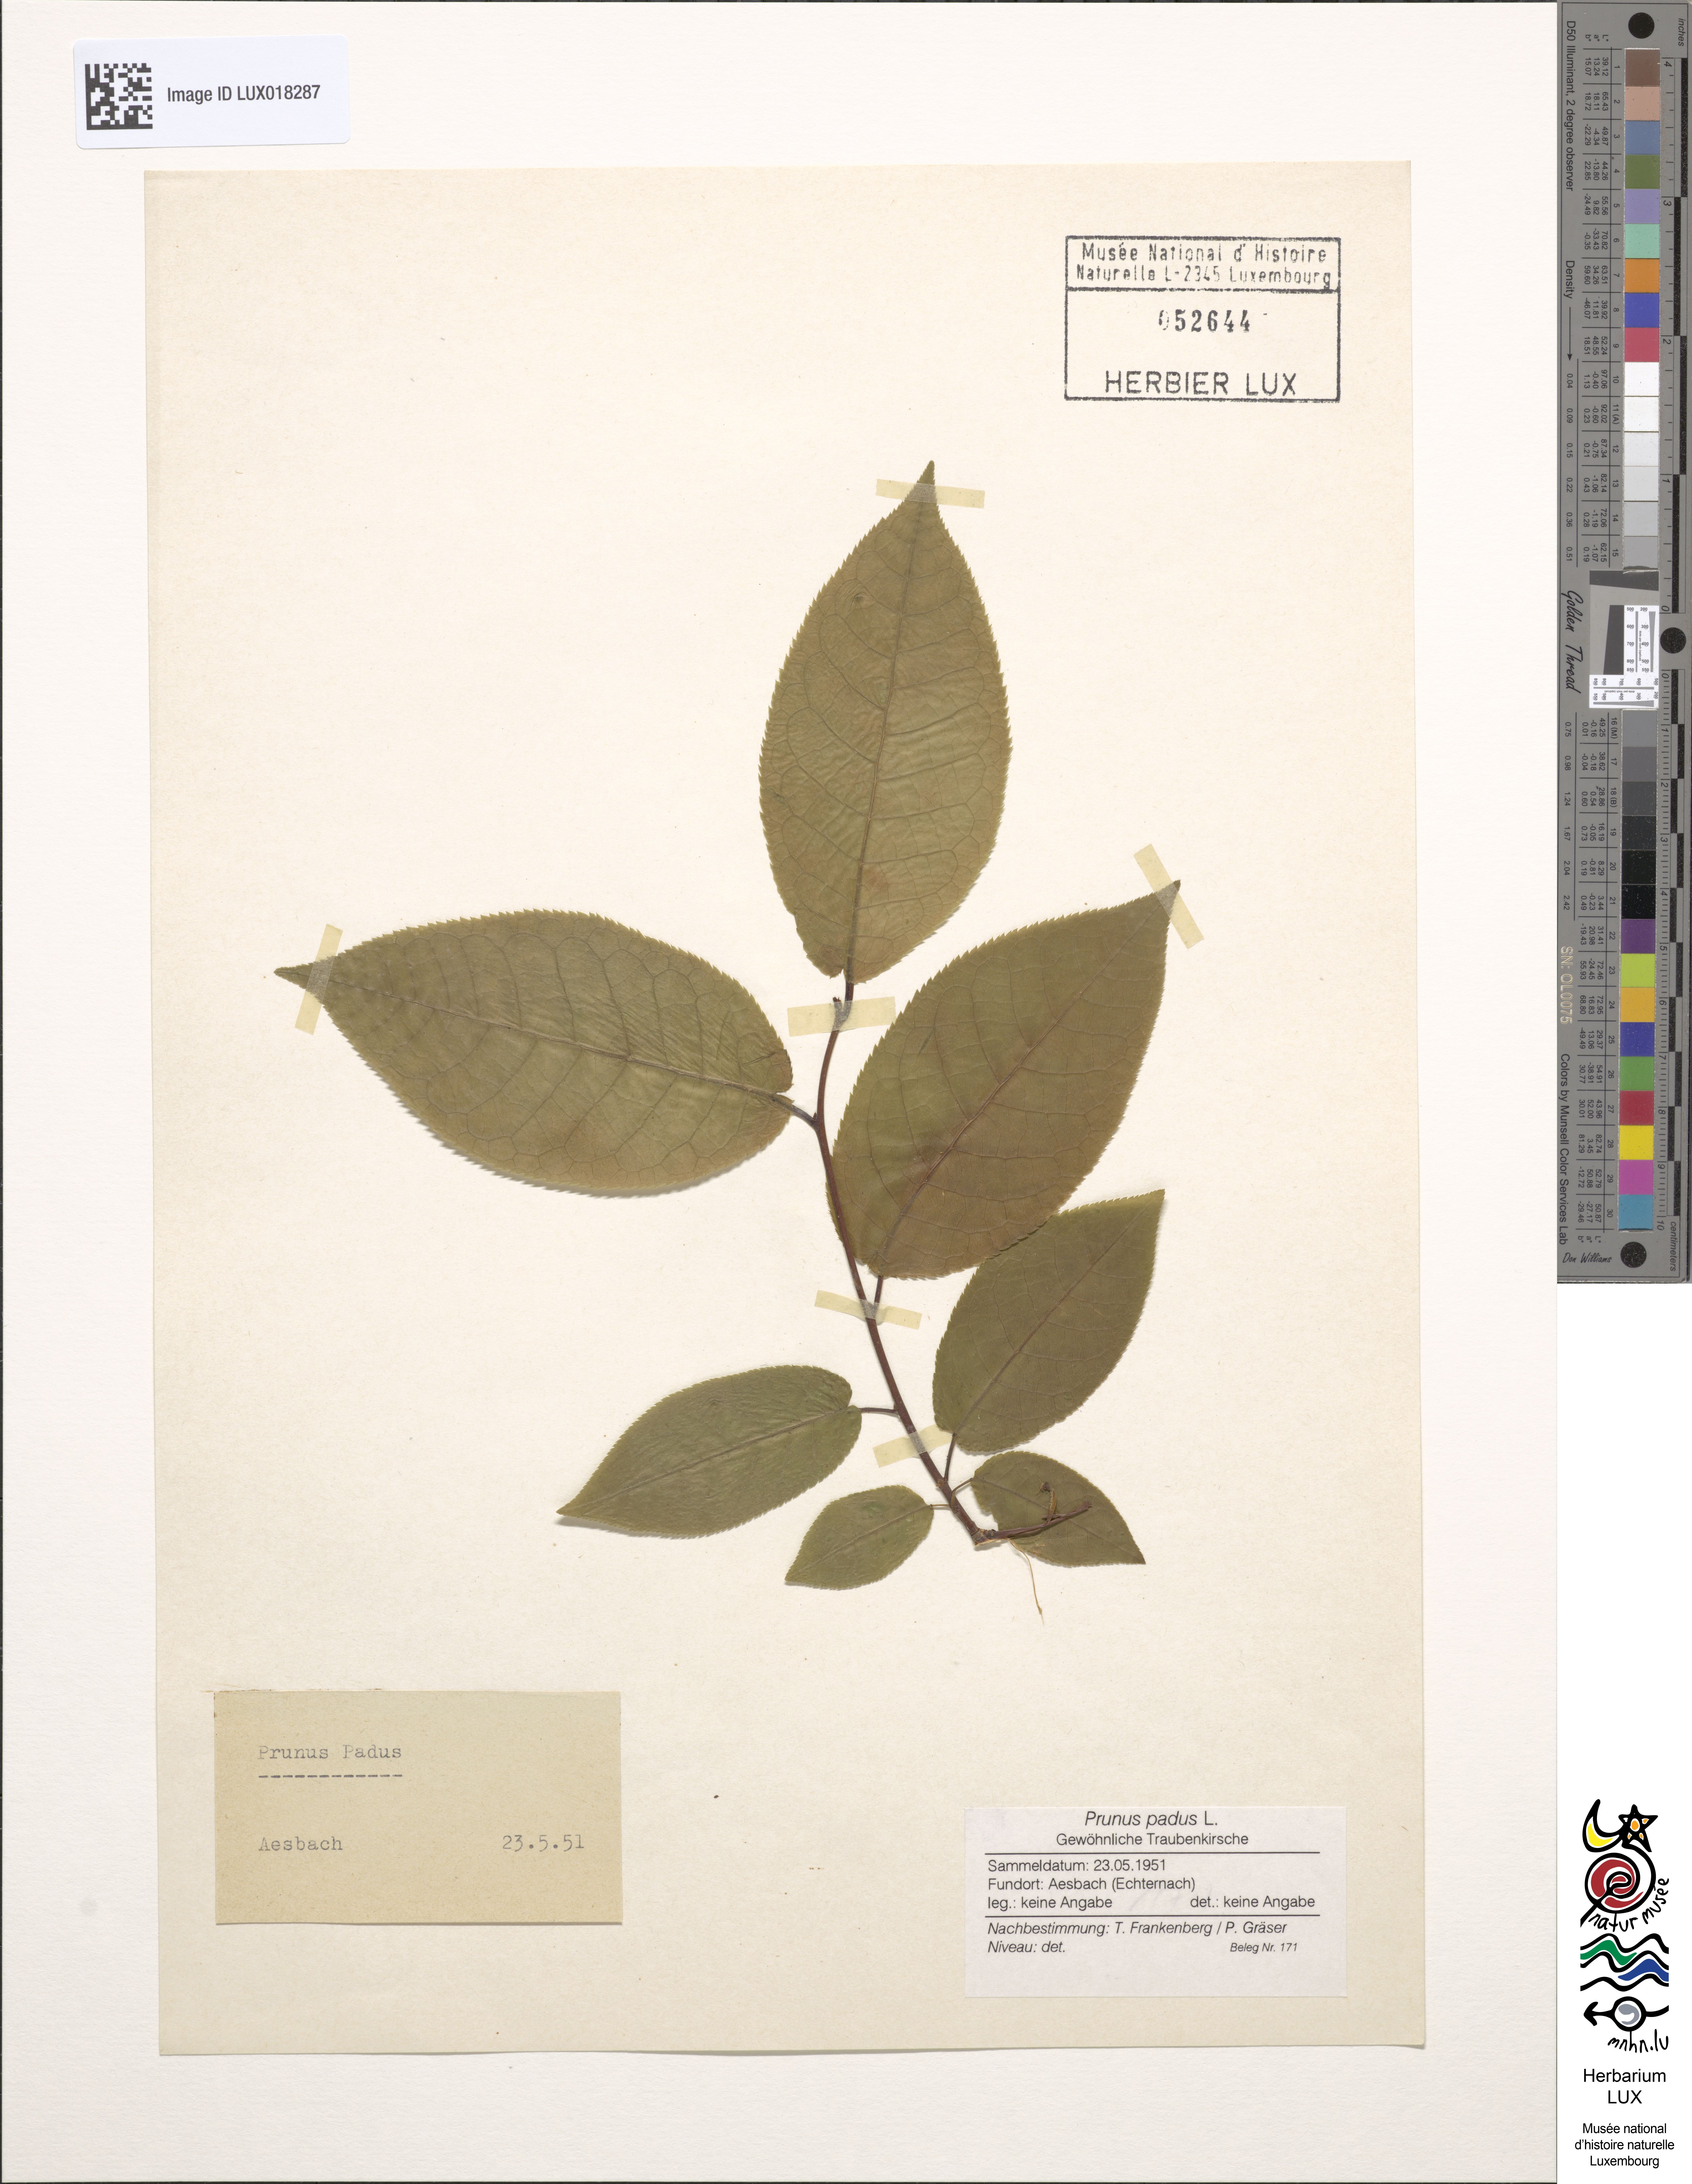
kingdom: Plantae
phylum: Tracheophyta
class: Magnoliopsida
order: Rosales
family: Rosaceae
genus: Prunus
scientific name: Prunus padus
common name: Bird cherry
